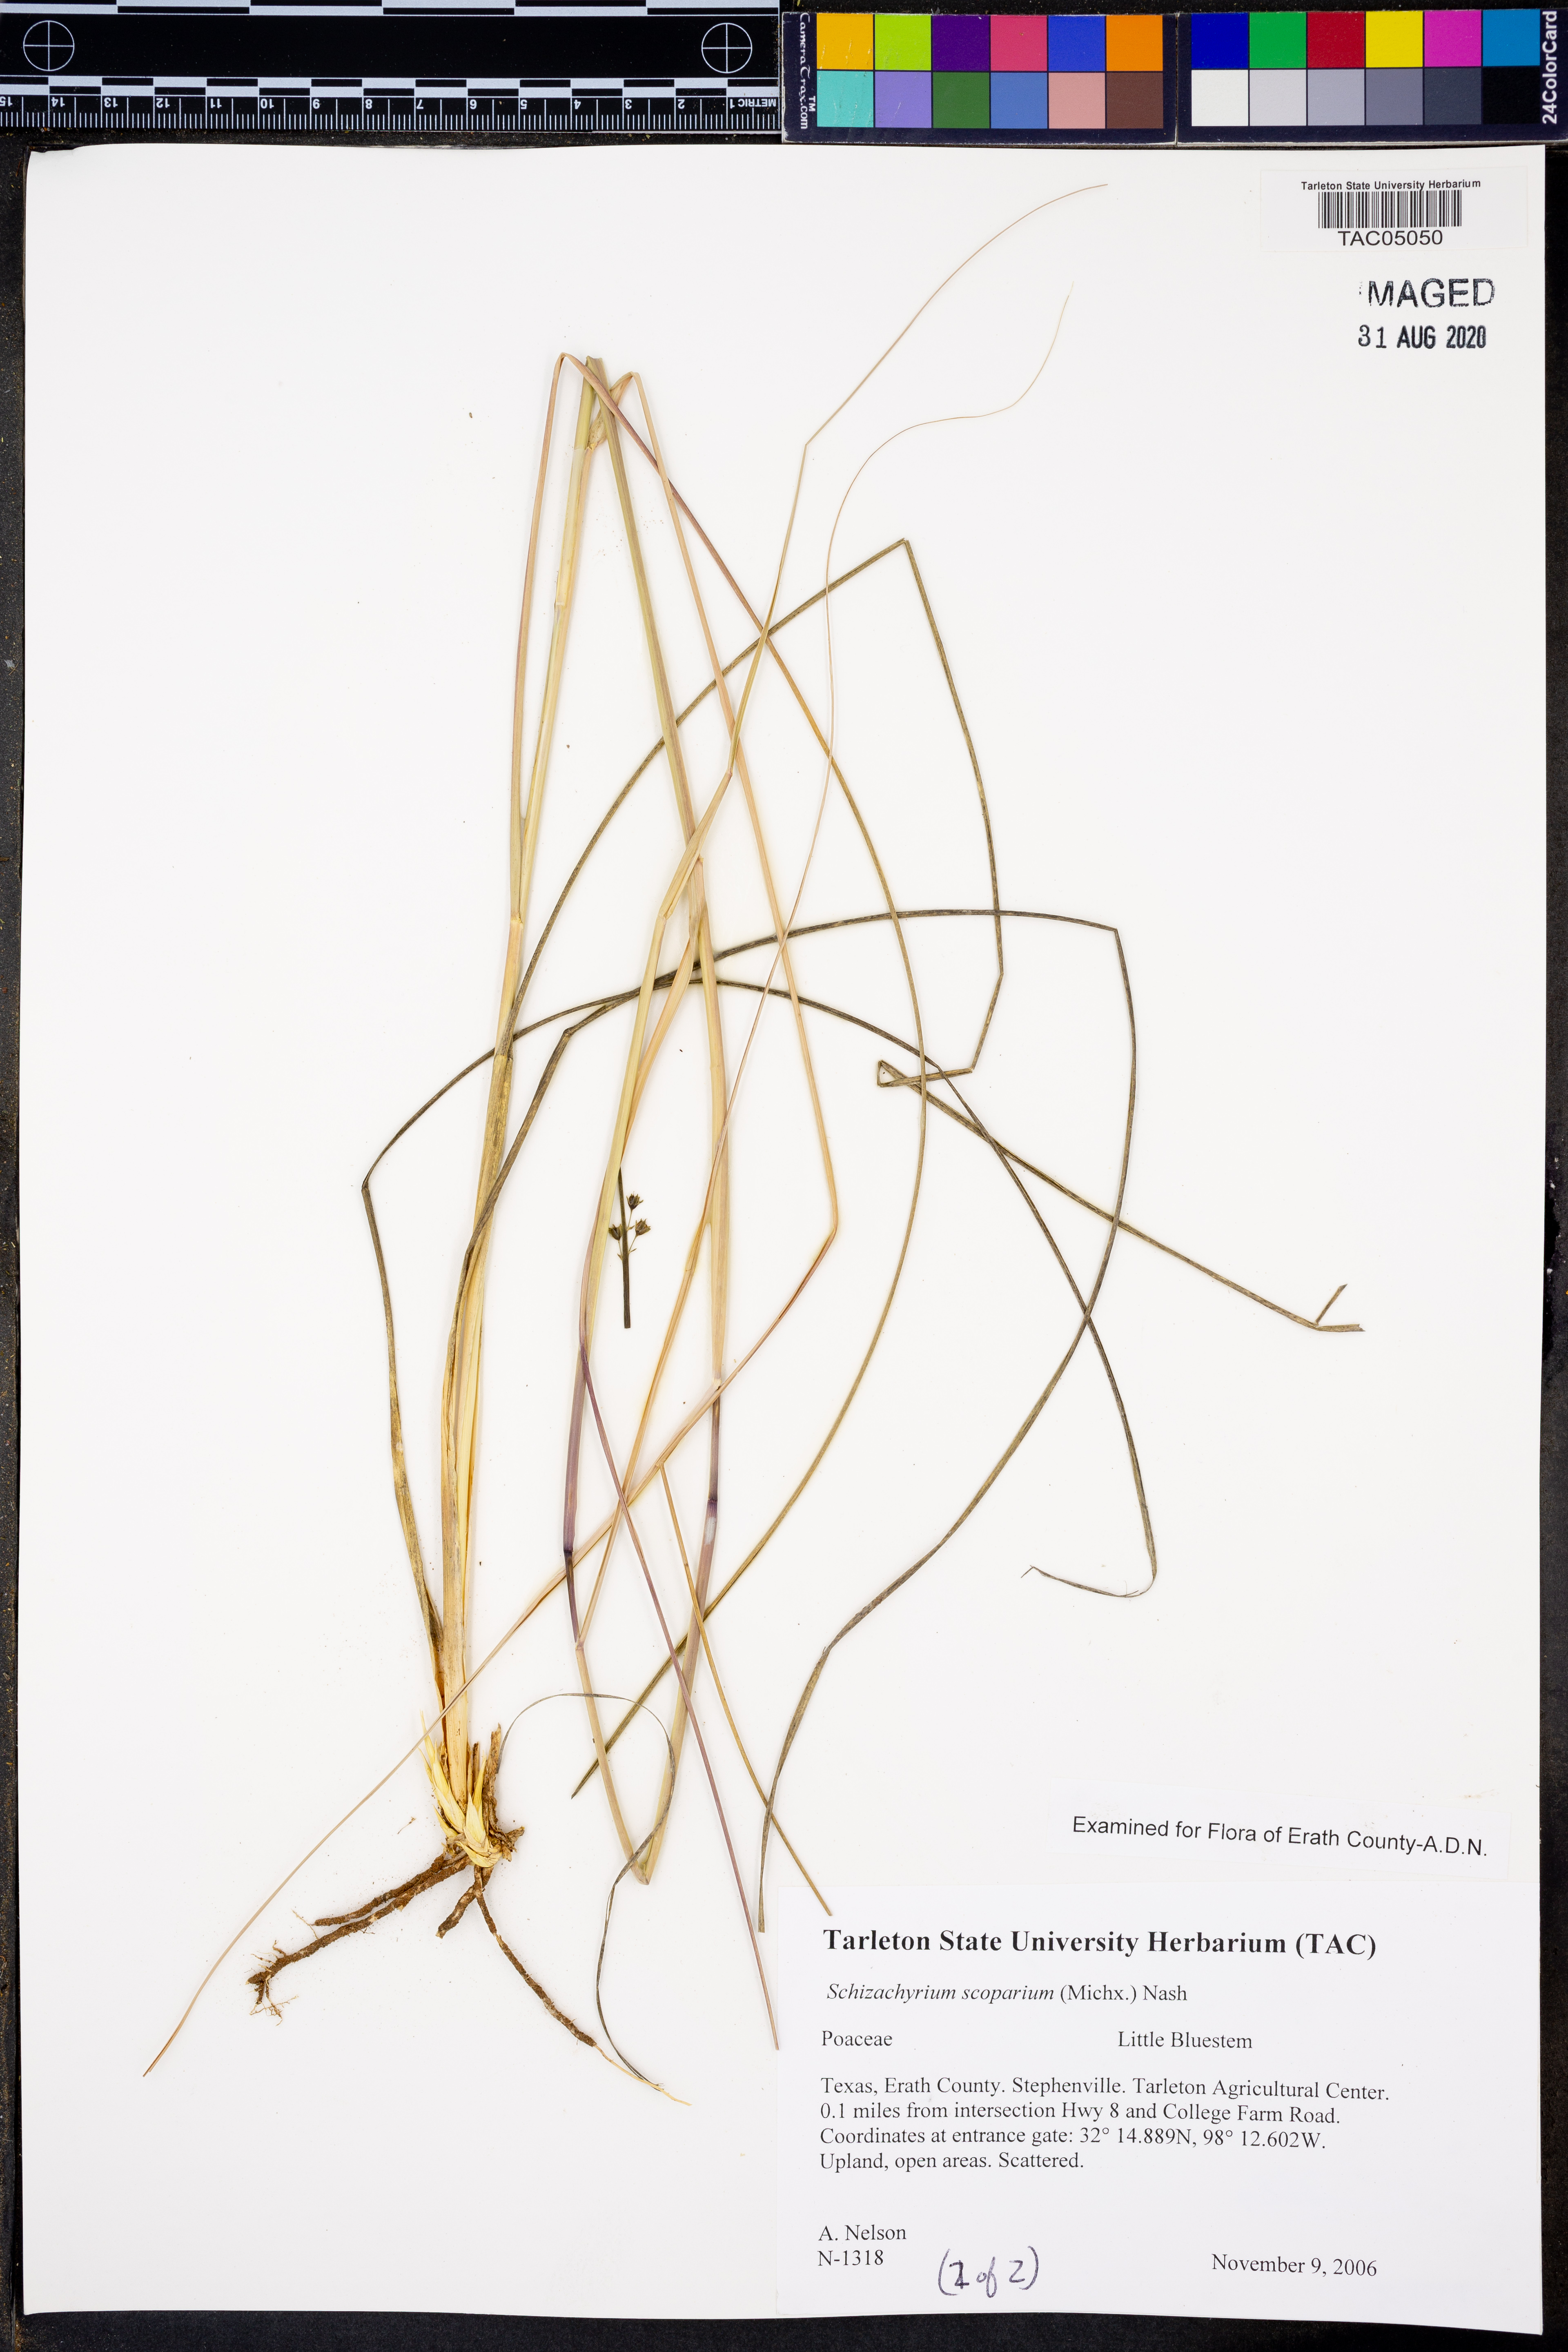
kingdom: Plantae
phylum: Tracheophyta
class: Liliopsida
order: Poales
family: Poaceae
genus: Schizachyrium
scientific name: Schizachyrium scoparium
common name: Little bluestem
